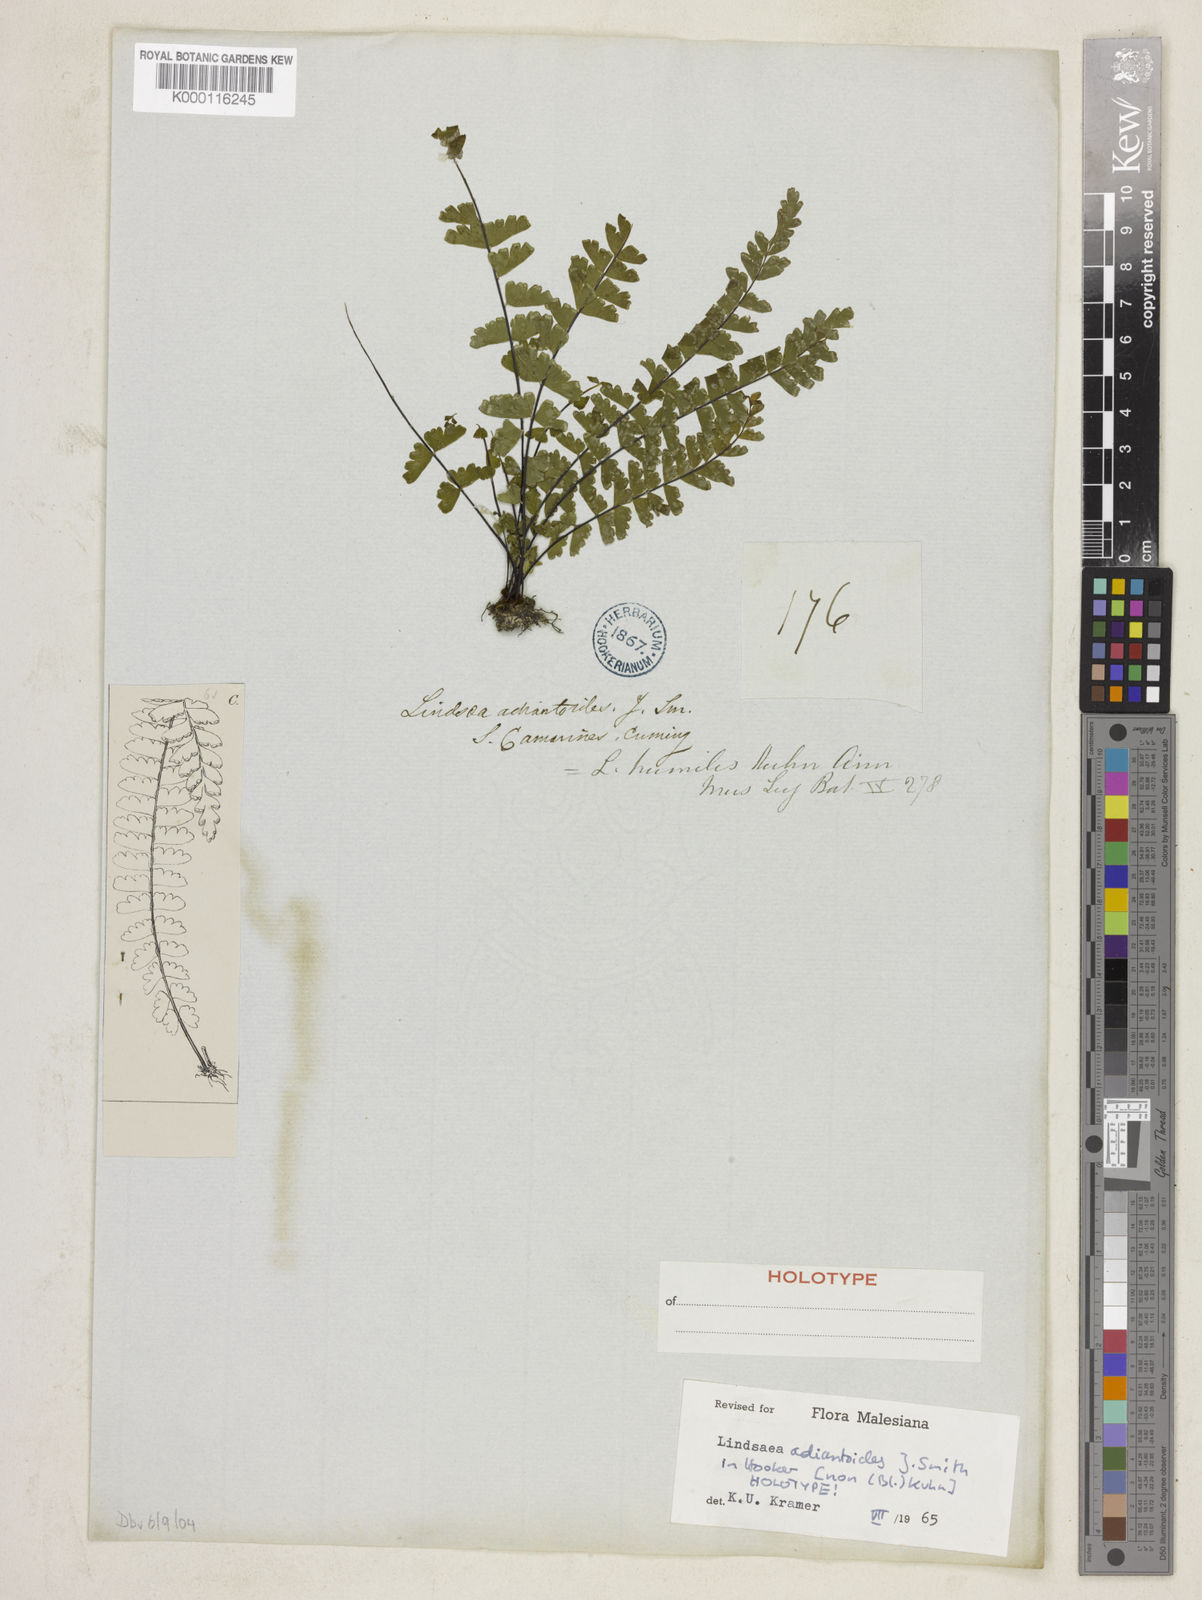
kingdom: Plantae
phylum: Tracheophyta
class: Polypodiopsida
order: Polypodiales
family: Lindsaeaceae
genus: Lindsaea
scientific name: Lindsaea adiantoides
